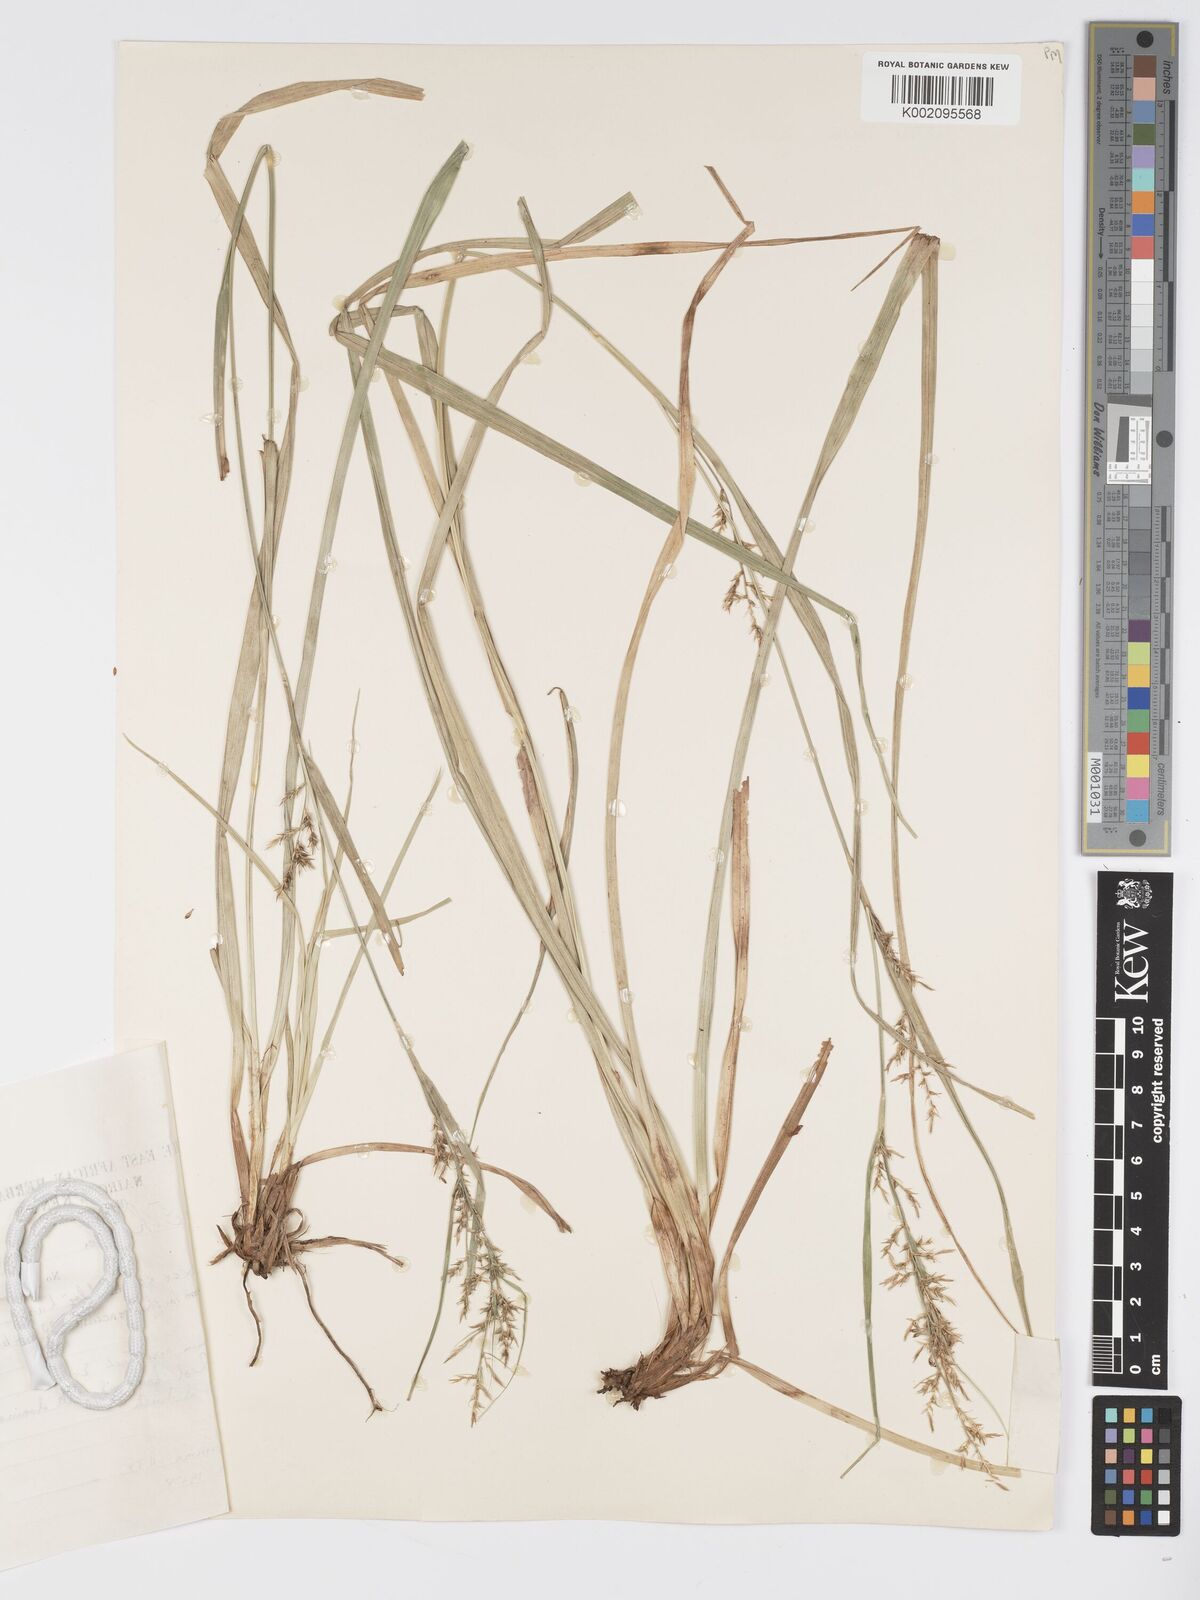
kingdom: Plantae
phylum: Tracheophyta
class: Liliopsida
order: Poales
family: Cyperaceae
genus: Carex
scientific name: Carex chlorosaccus
